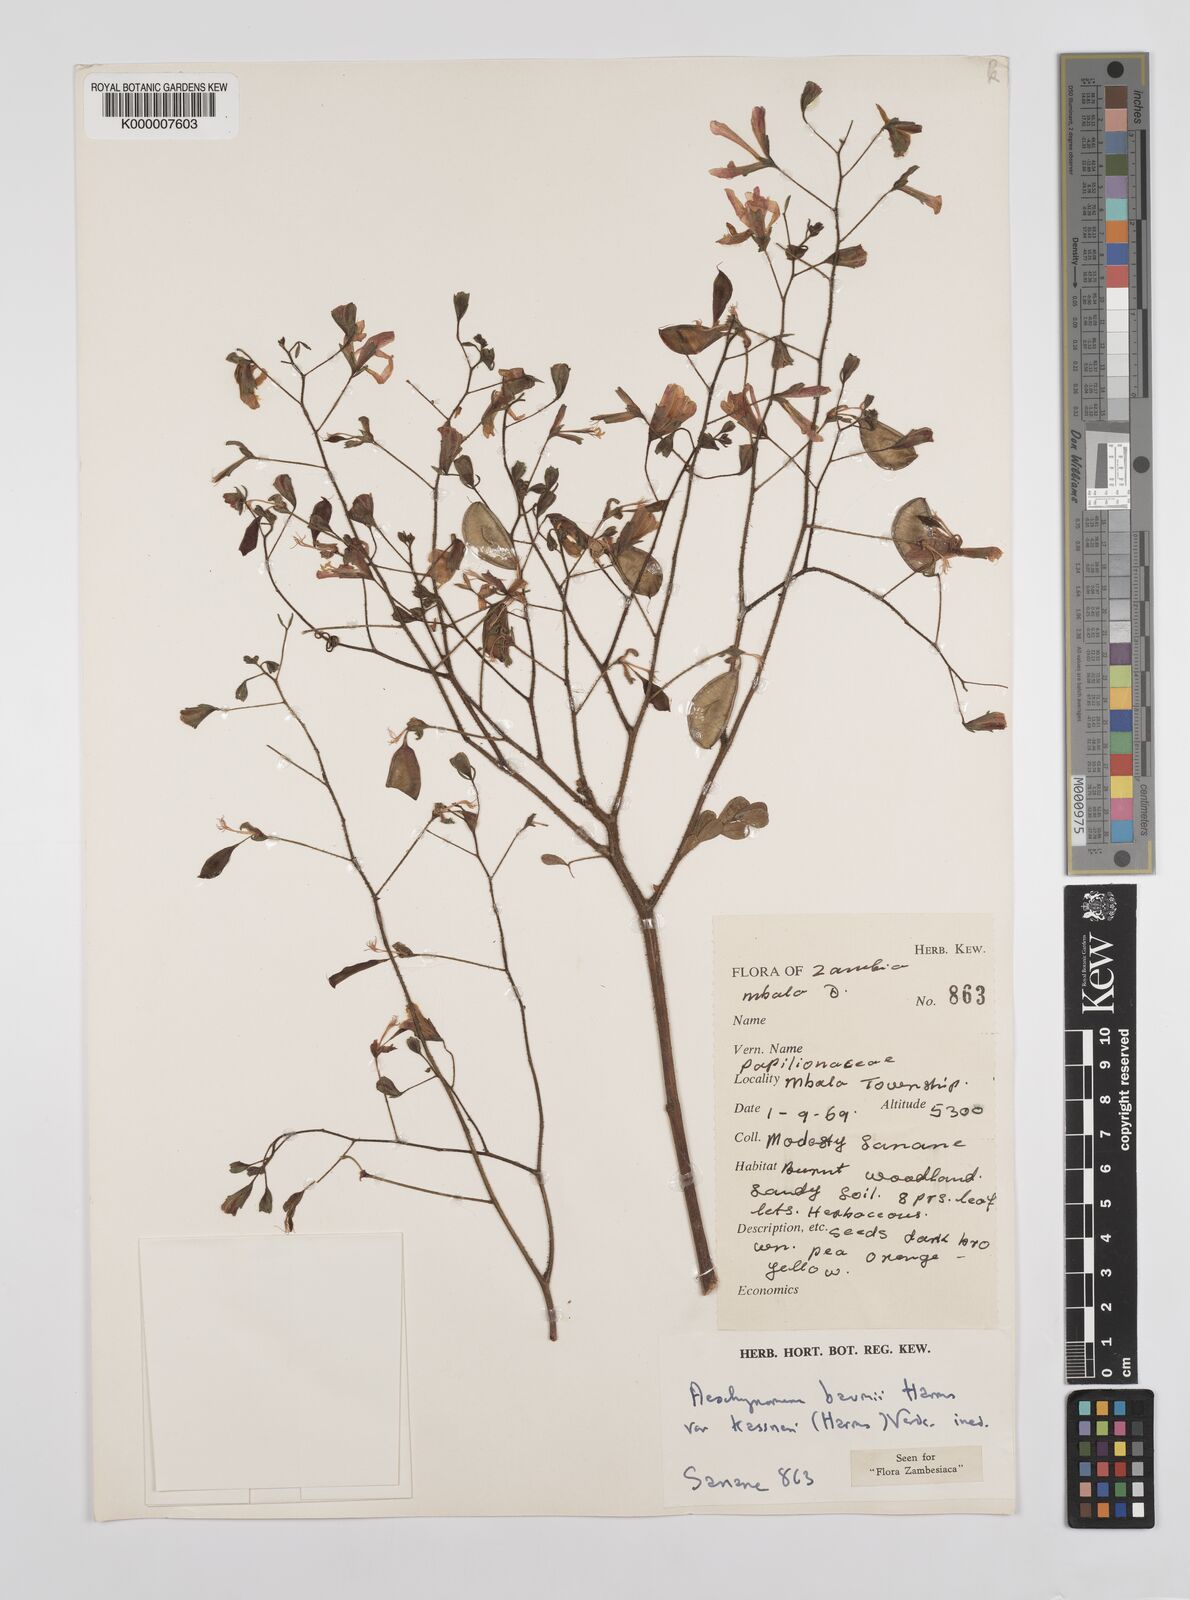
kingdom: Plantae
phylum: Tracheophyta
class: Magnoliopsida
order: Fabales
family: Fabaceae
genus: Aeschynomene
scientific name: Aeschynomene baumii
